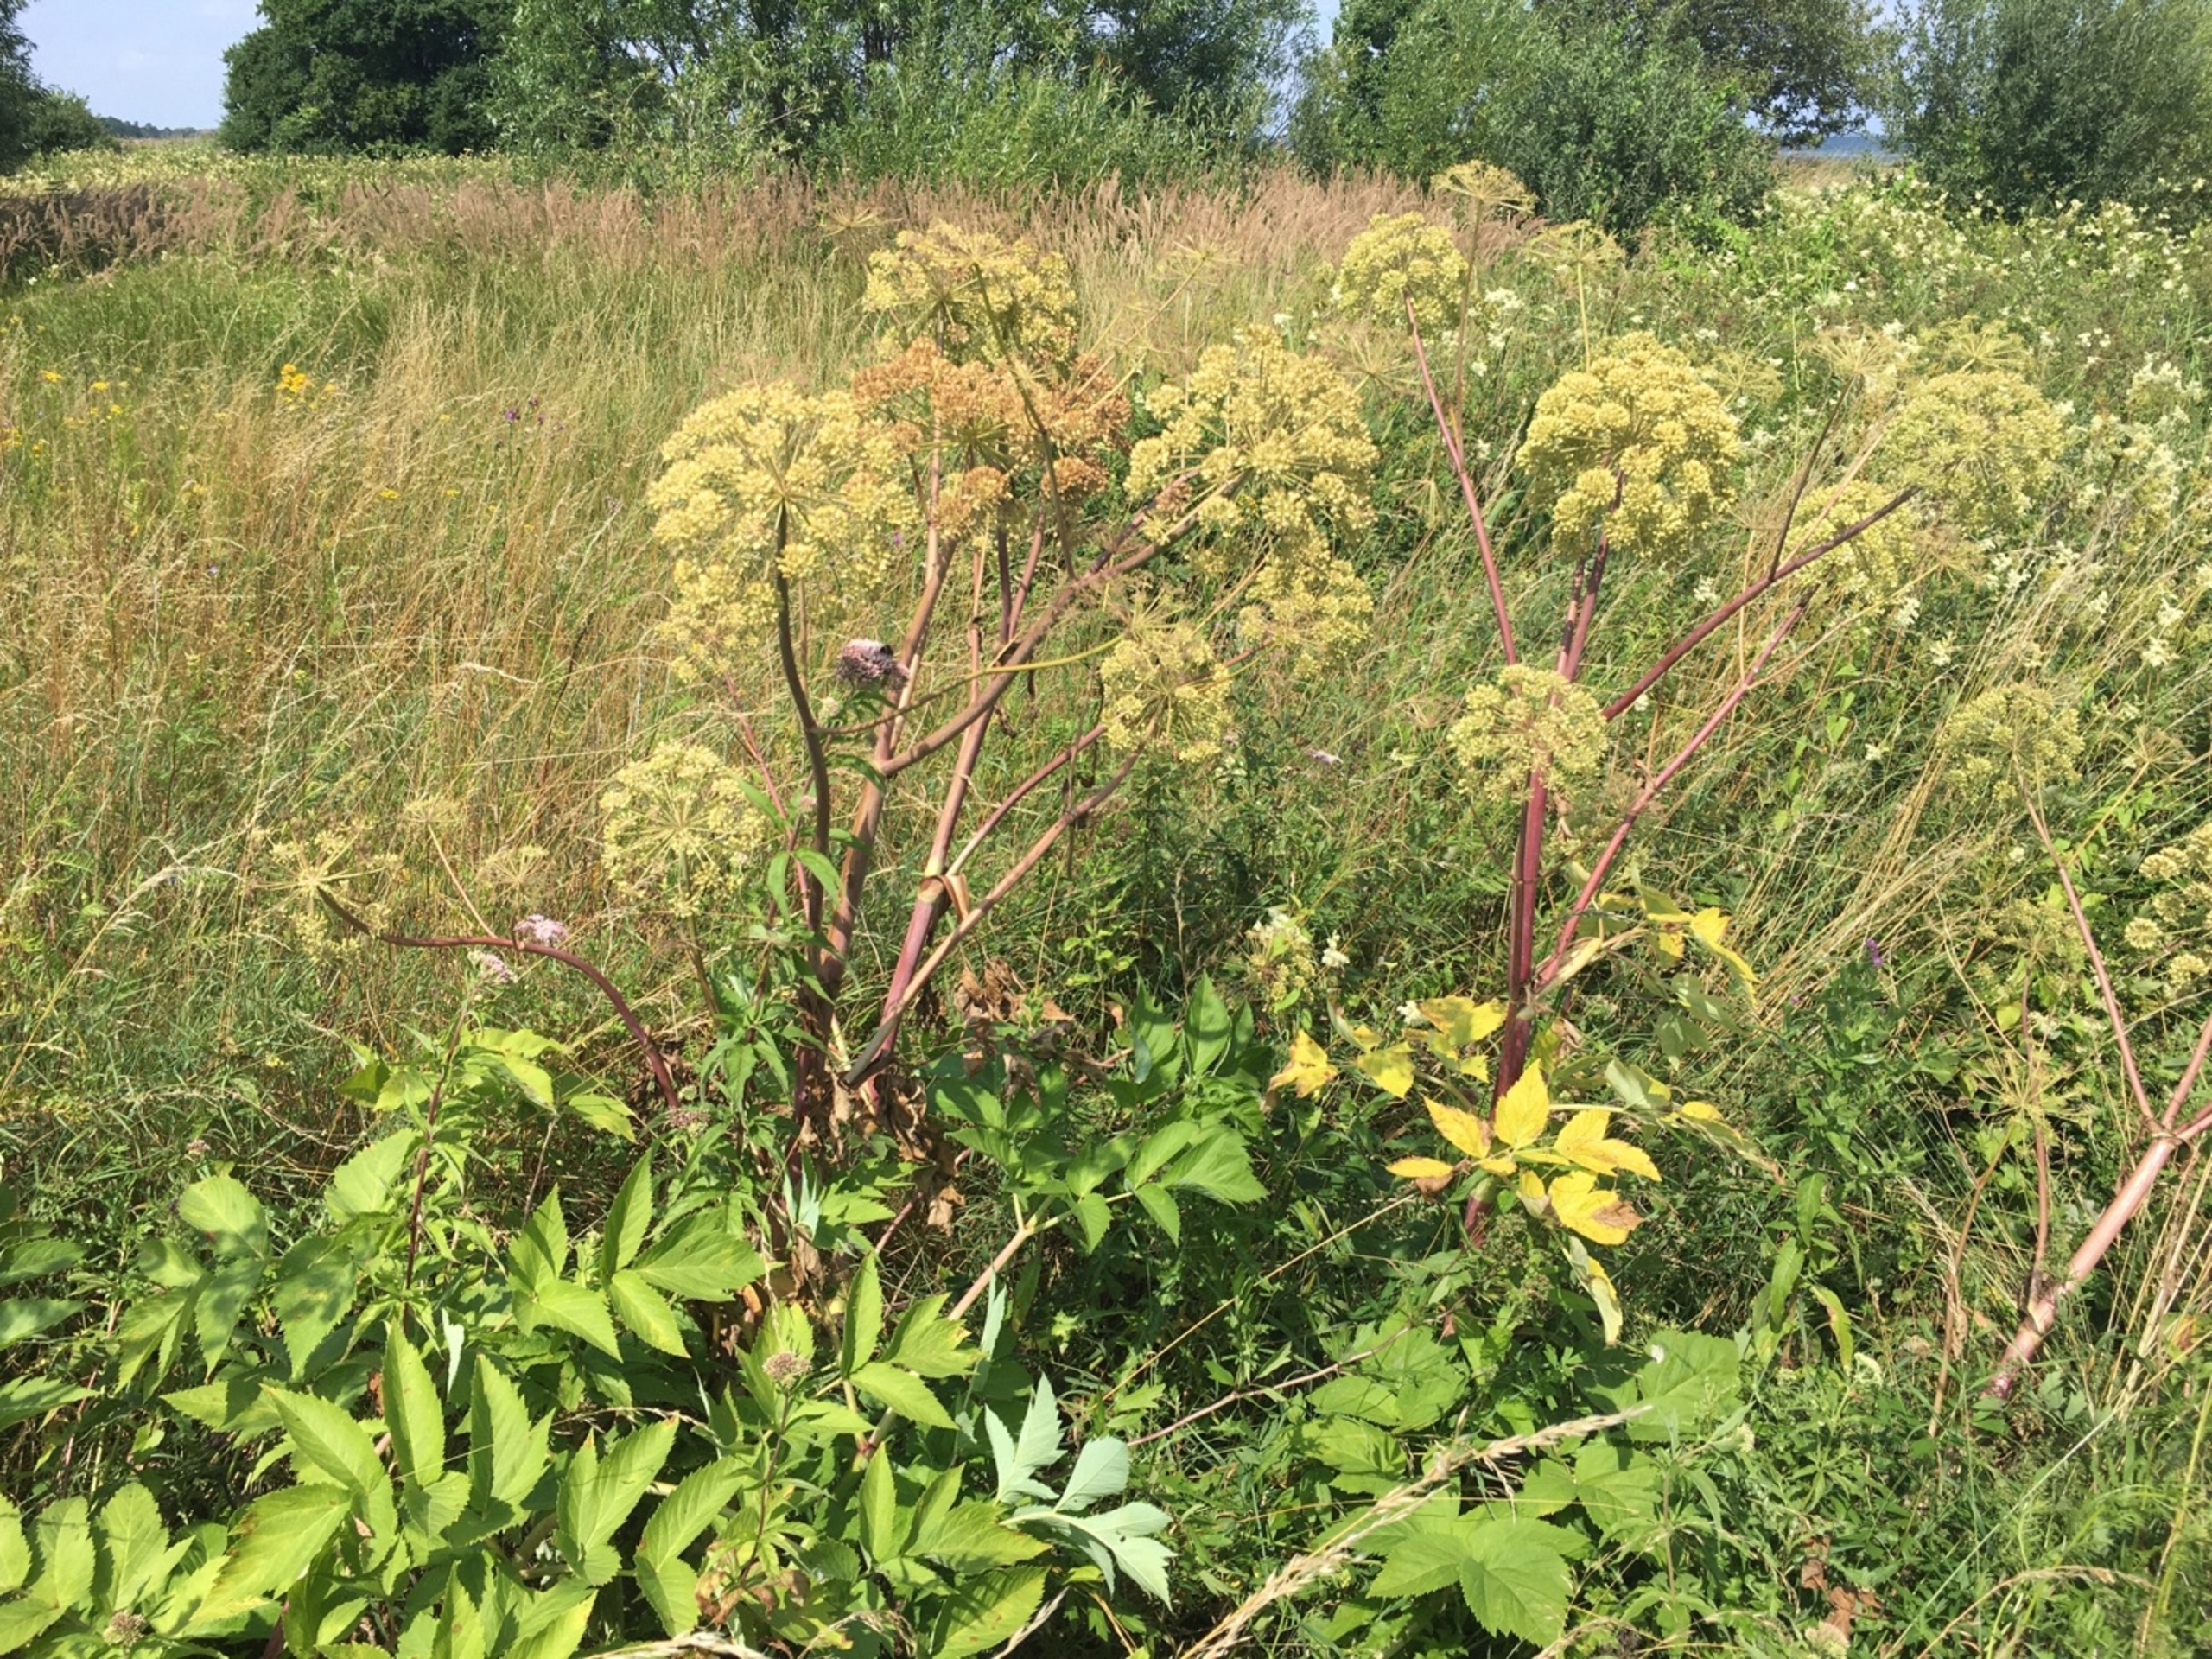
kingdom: Plantae
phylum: Tracheophyta
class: Magnoliopsida
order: Apiales
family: Apiaceae
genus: Angelica
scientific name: Angelica archangelica
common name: Kvan
